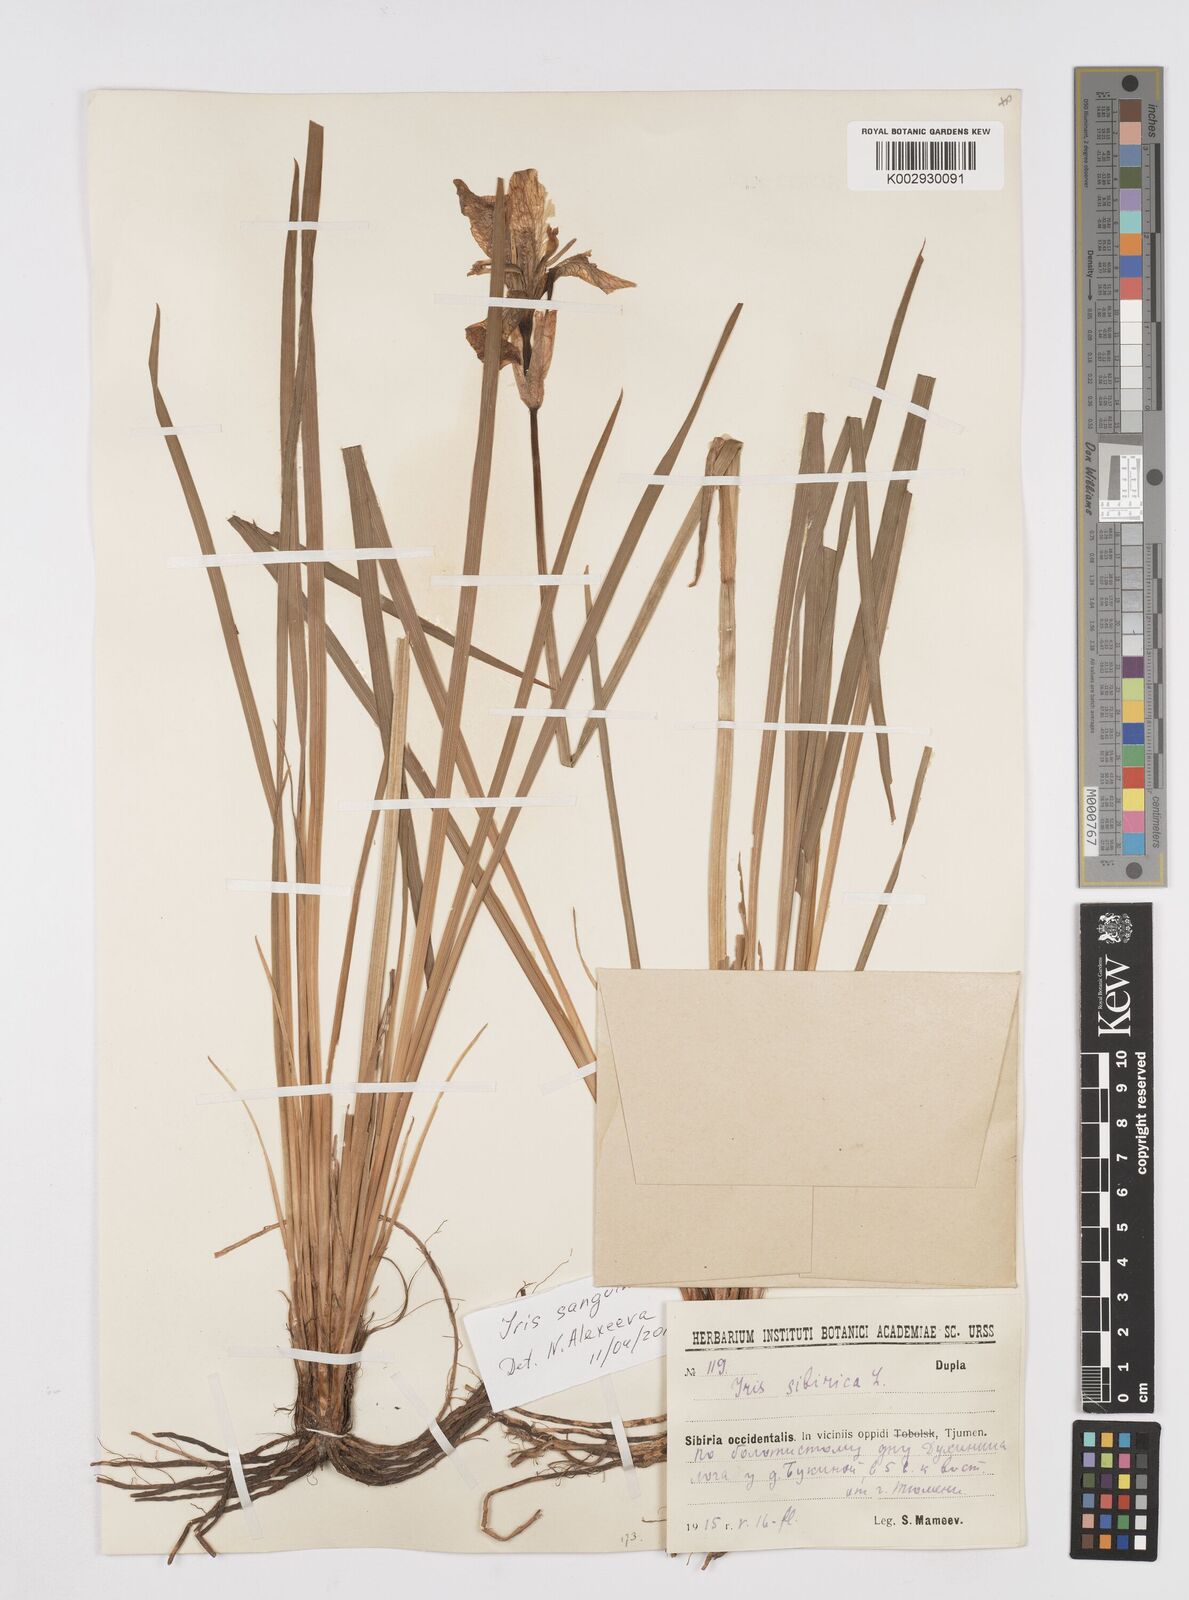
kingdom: Plantae
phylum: Tracheophyta
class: Liliopsida
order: Asparagales
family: Iridaceae
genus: Iris
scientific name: Iris sanguinea
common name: Blood iris
